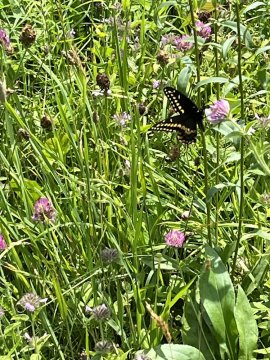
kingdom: Animalia
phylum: Arthropoda
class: Insecta
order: Lepidoptera
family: Papilionidae
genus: Papilio
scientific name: Papilio polyxenes
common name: Black Swallowtail
